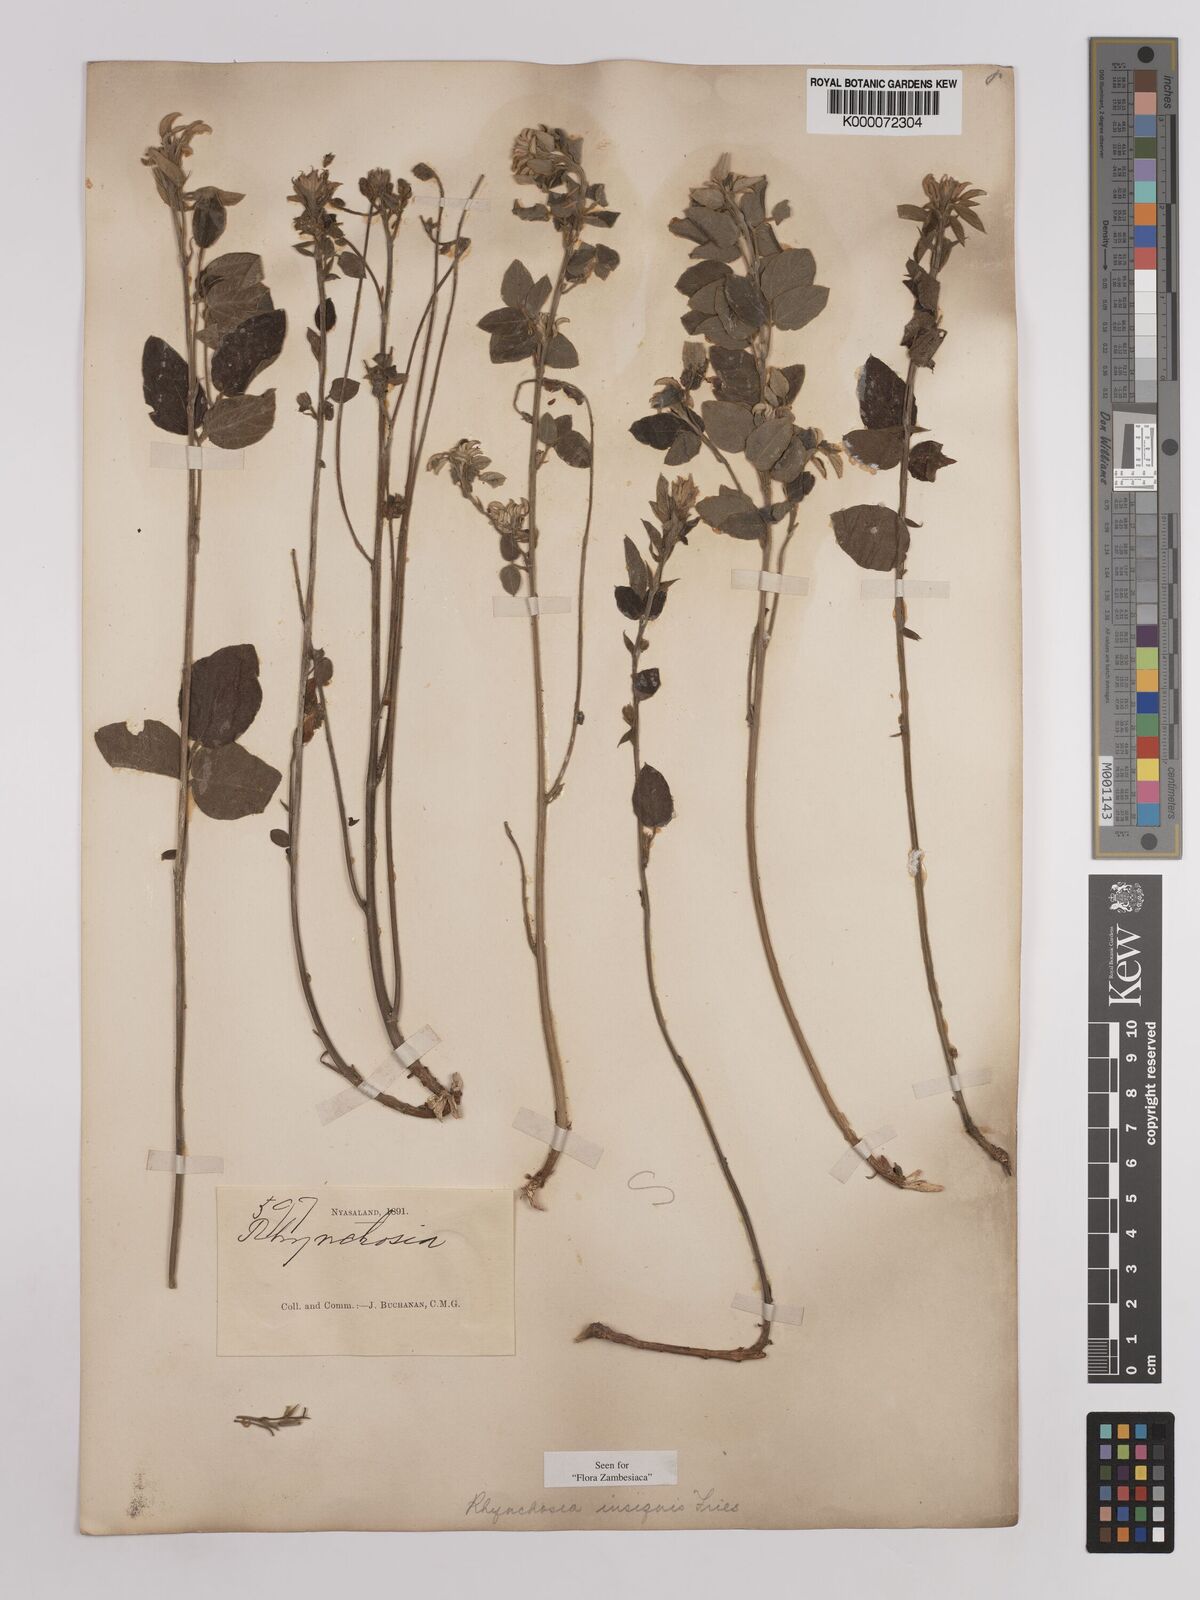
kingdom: Plantae
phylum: Tracheophyta
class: Magnoliopsida
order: Fabales
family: Fabaceae
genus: Rhynchosia
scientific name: Rhynchosia insignis
